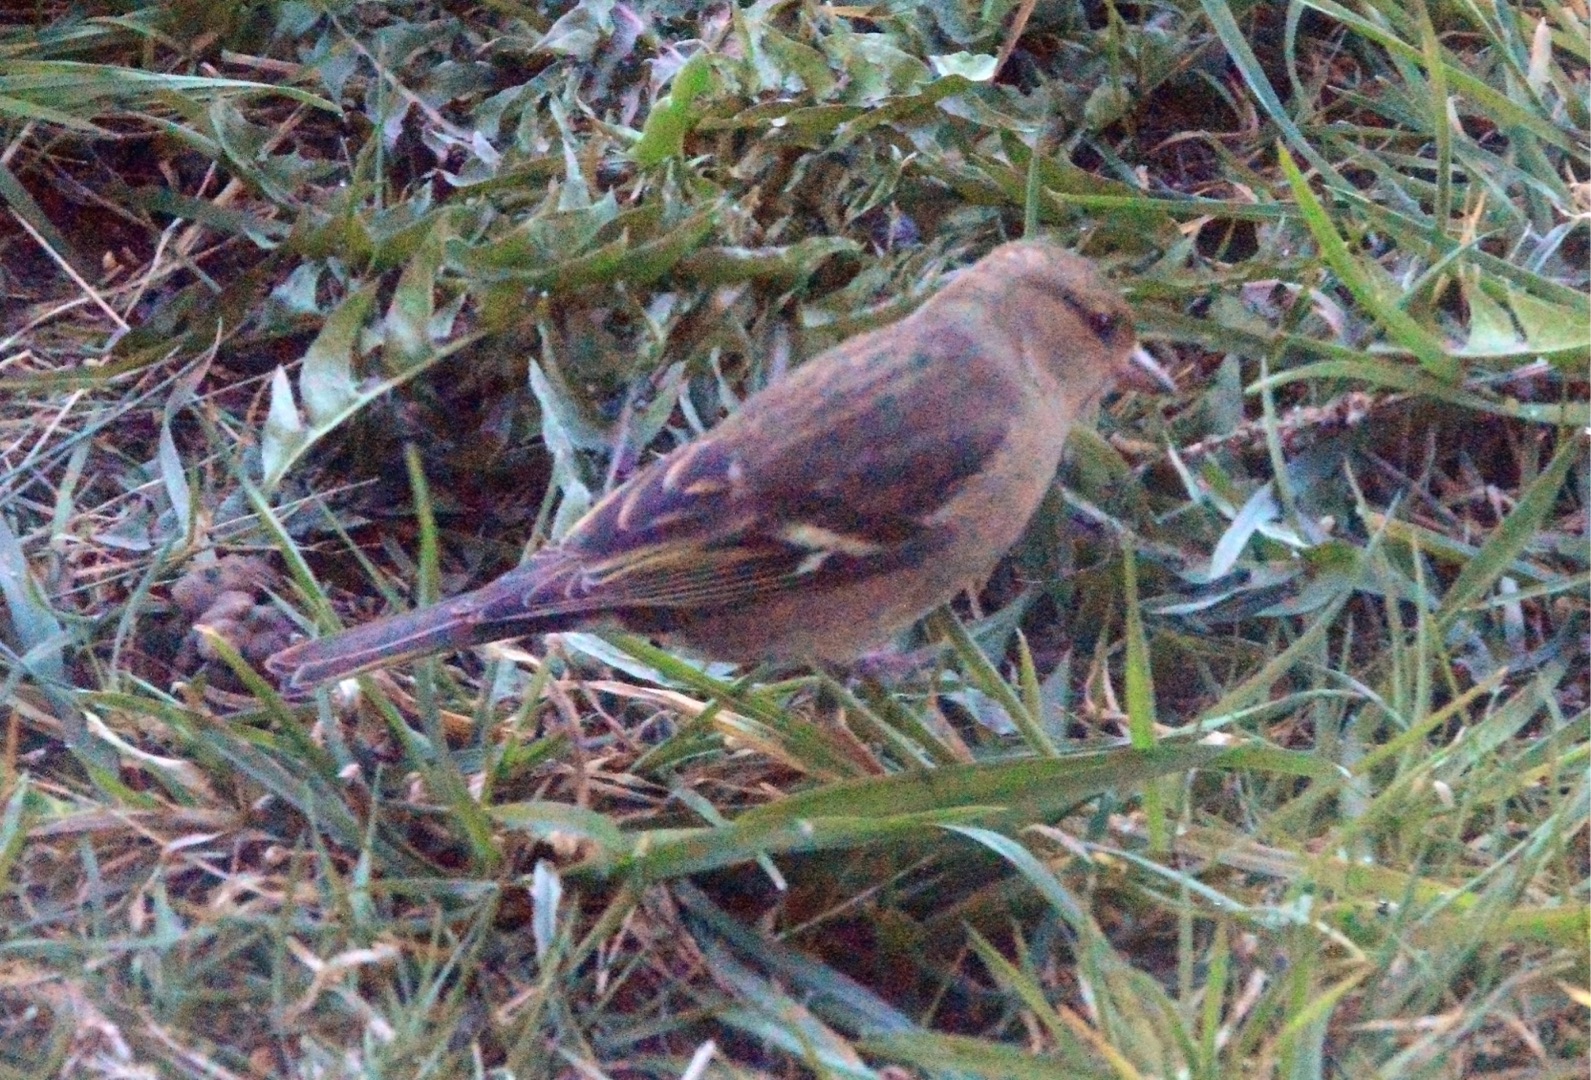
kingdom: Animalia
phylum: Chordata
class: Aves
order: Passeriformes
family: Fringillidae
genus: Fringilla
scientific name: Fringilla coelebs
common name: Bogfinke
